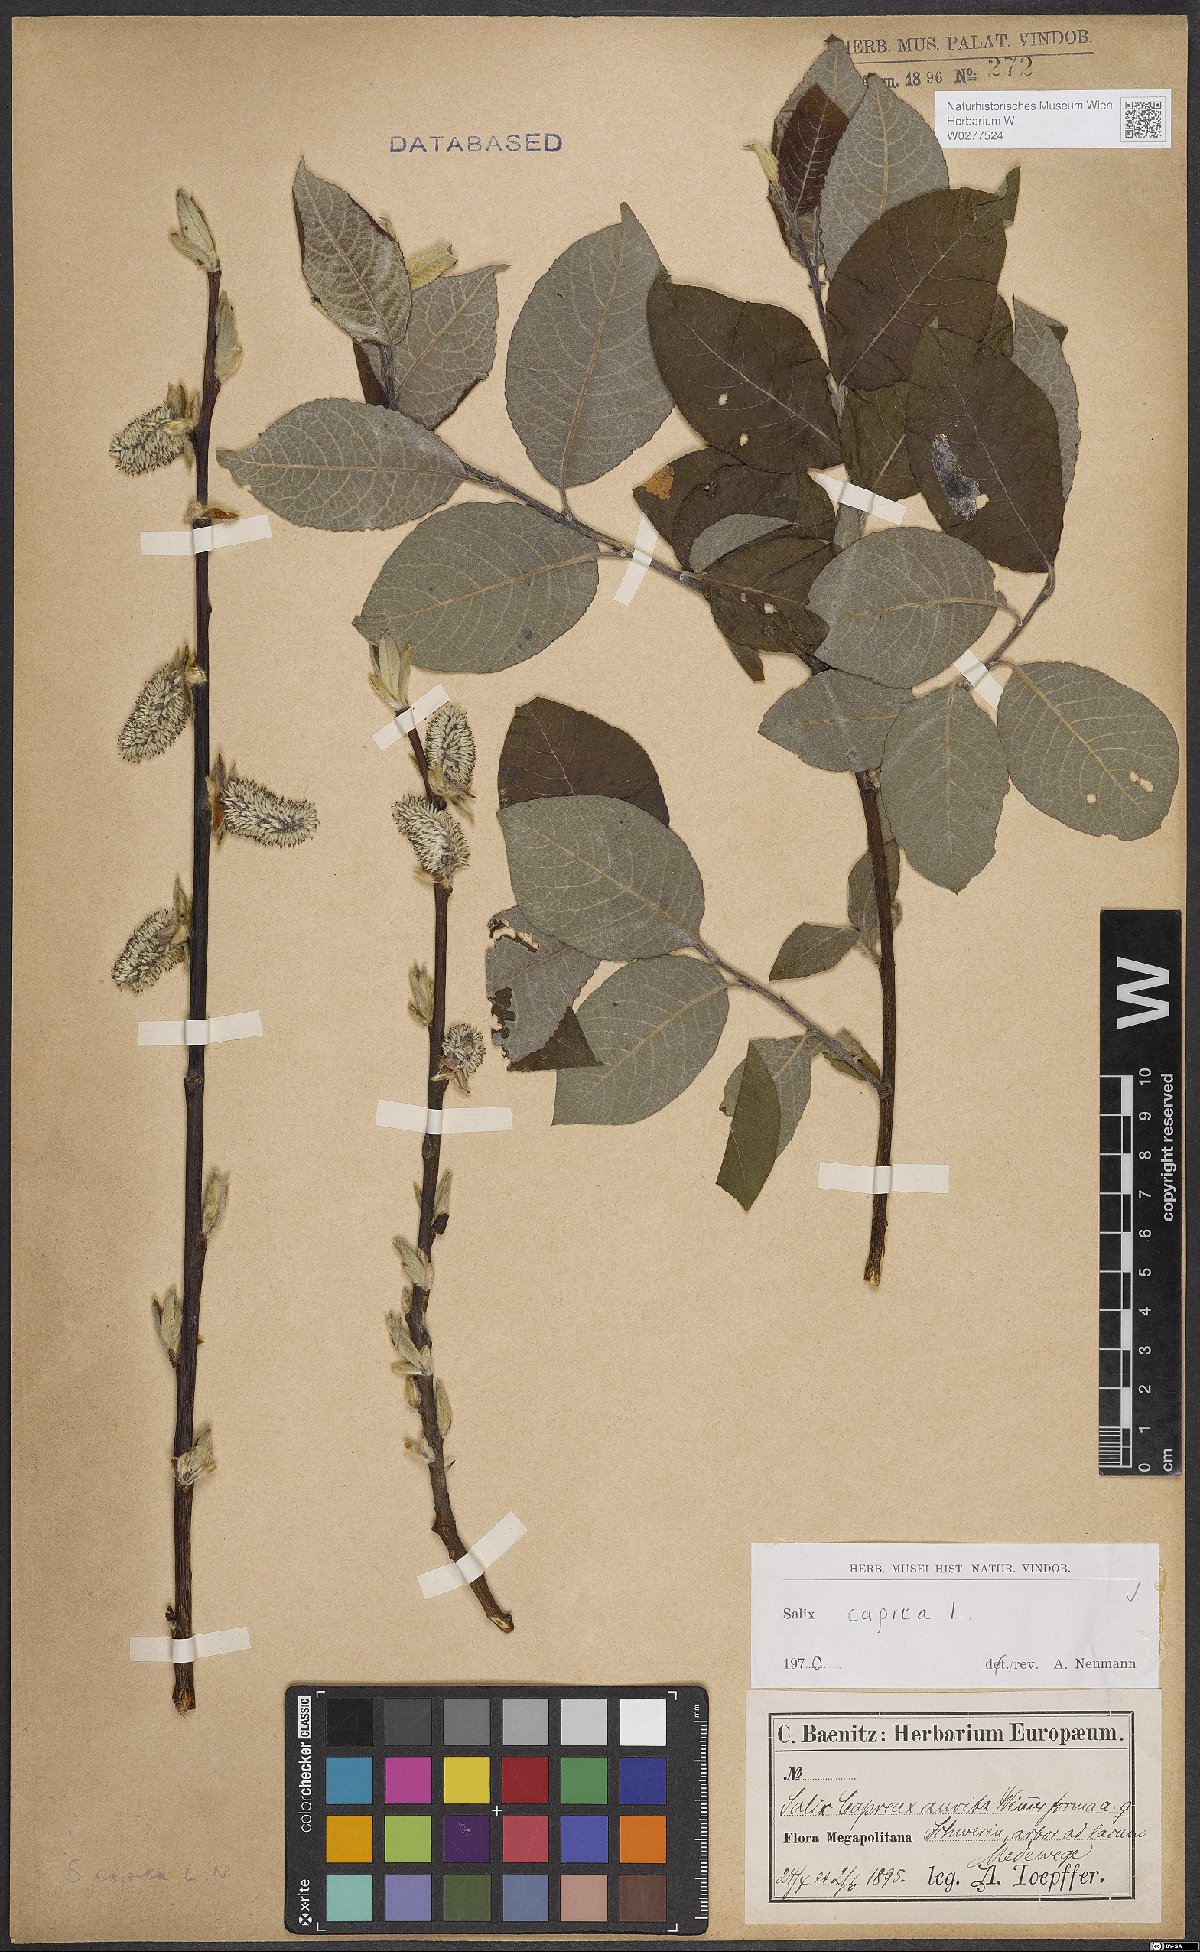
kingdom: Plantae
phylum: Tracheophyta
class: Magnoliopsida
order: Malpighiales
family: Salicaceae
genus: Salix
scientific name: Salix caprea
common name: Goat willow
